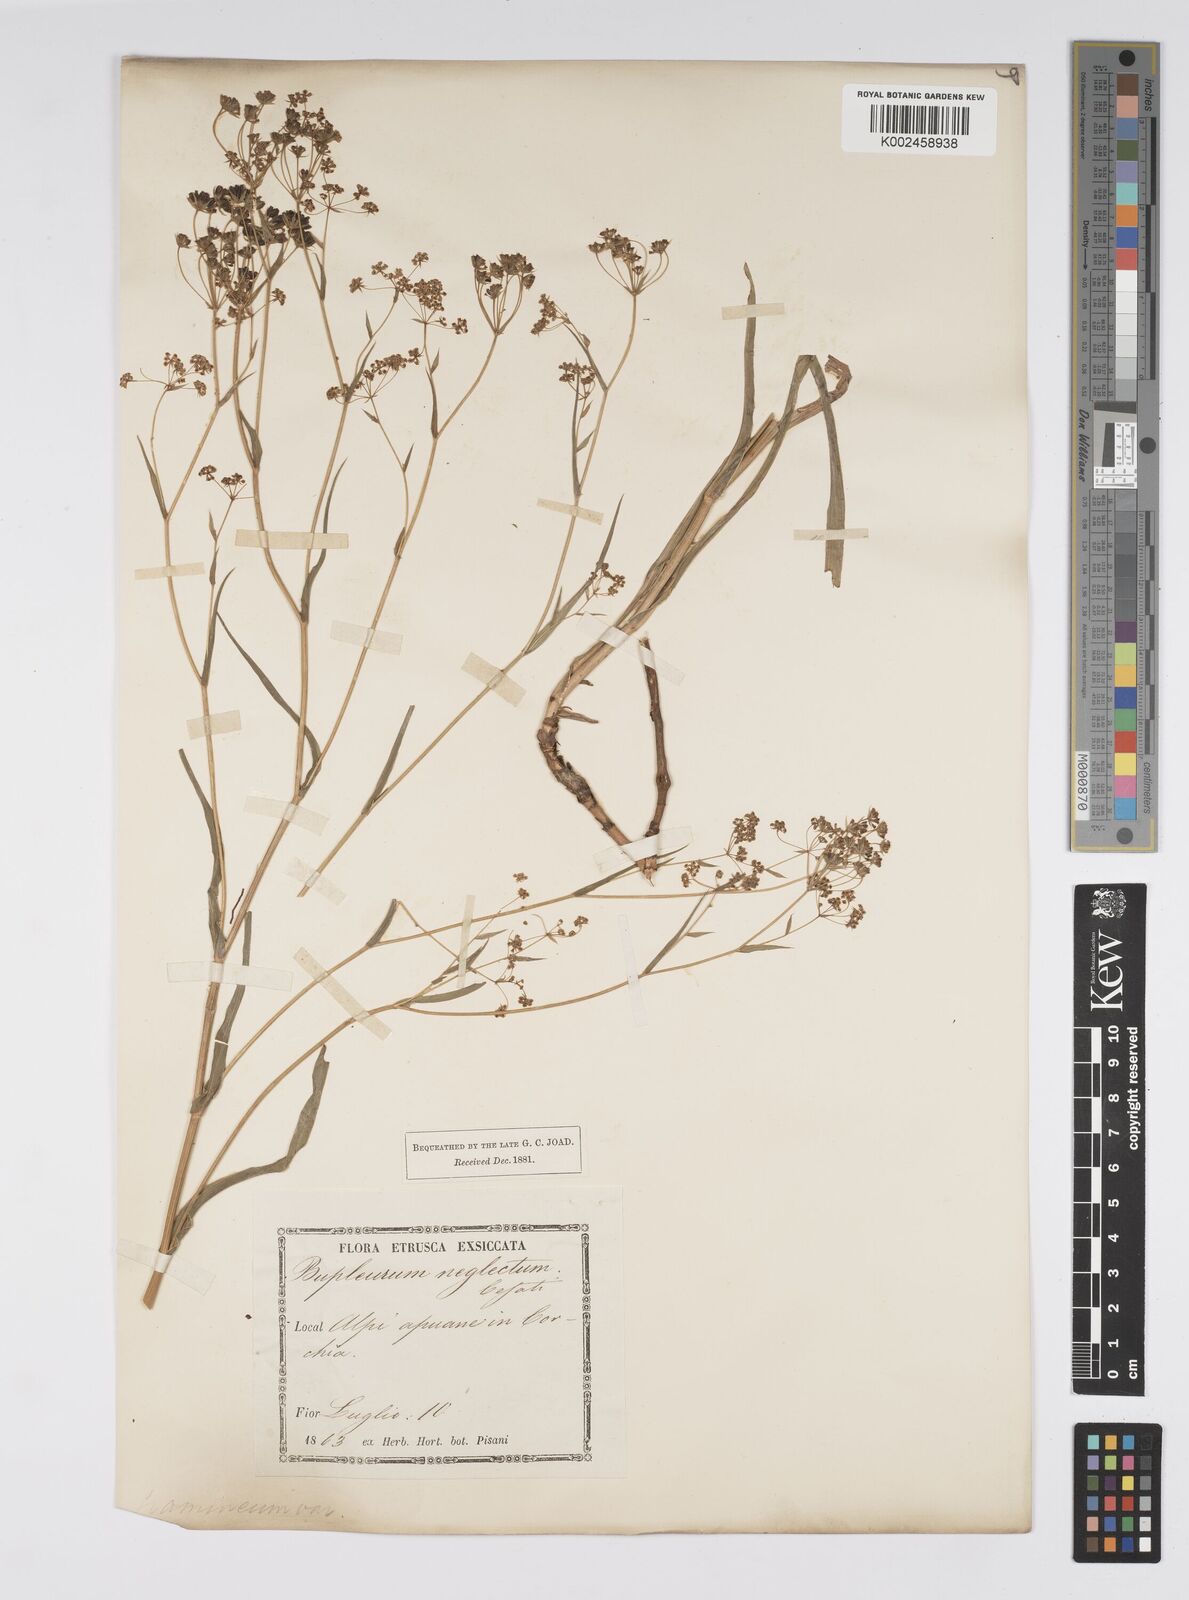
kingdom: Plantae
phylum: Tracheophyta
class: Magnoliopsida
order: Apiales
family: Apiaceae
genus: Bupleurum
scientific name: Bupleurum falcatum
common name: Sickle-leaved hare's-ear
